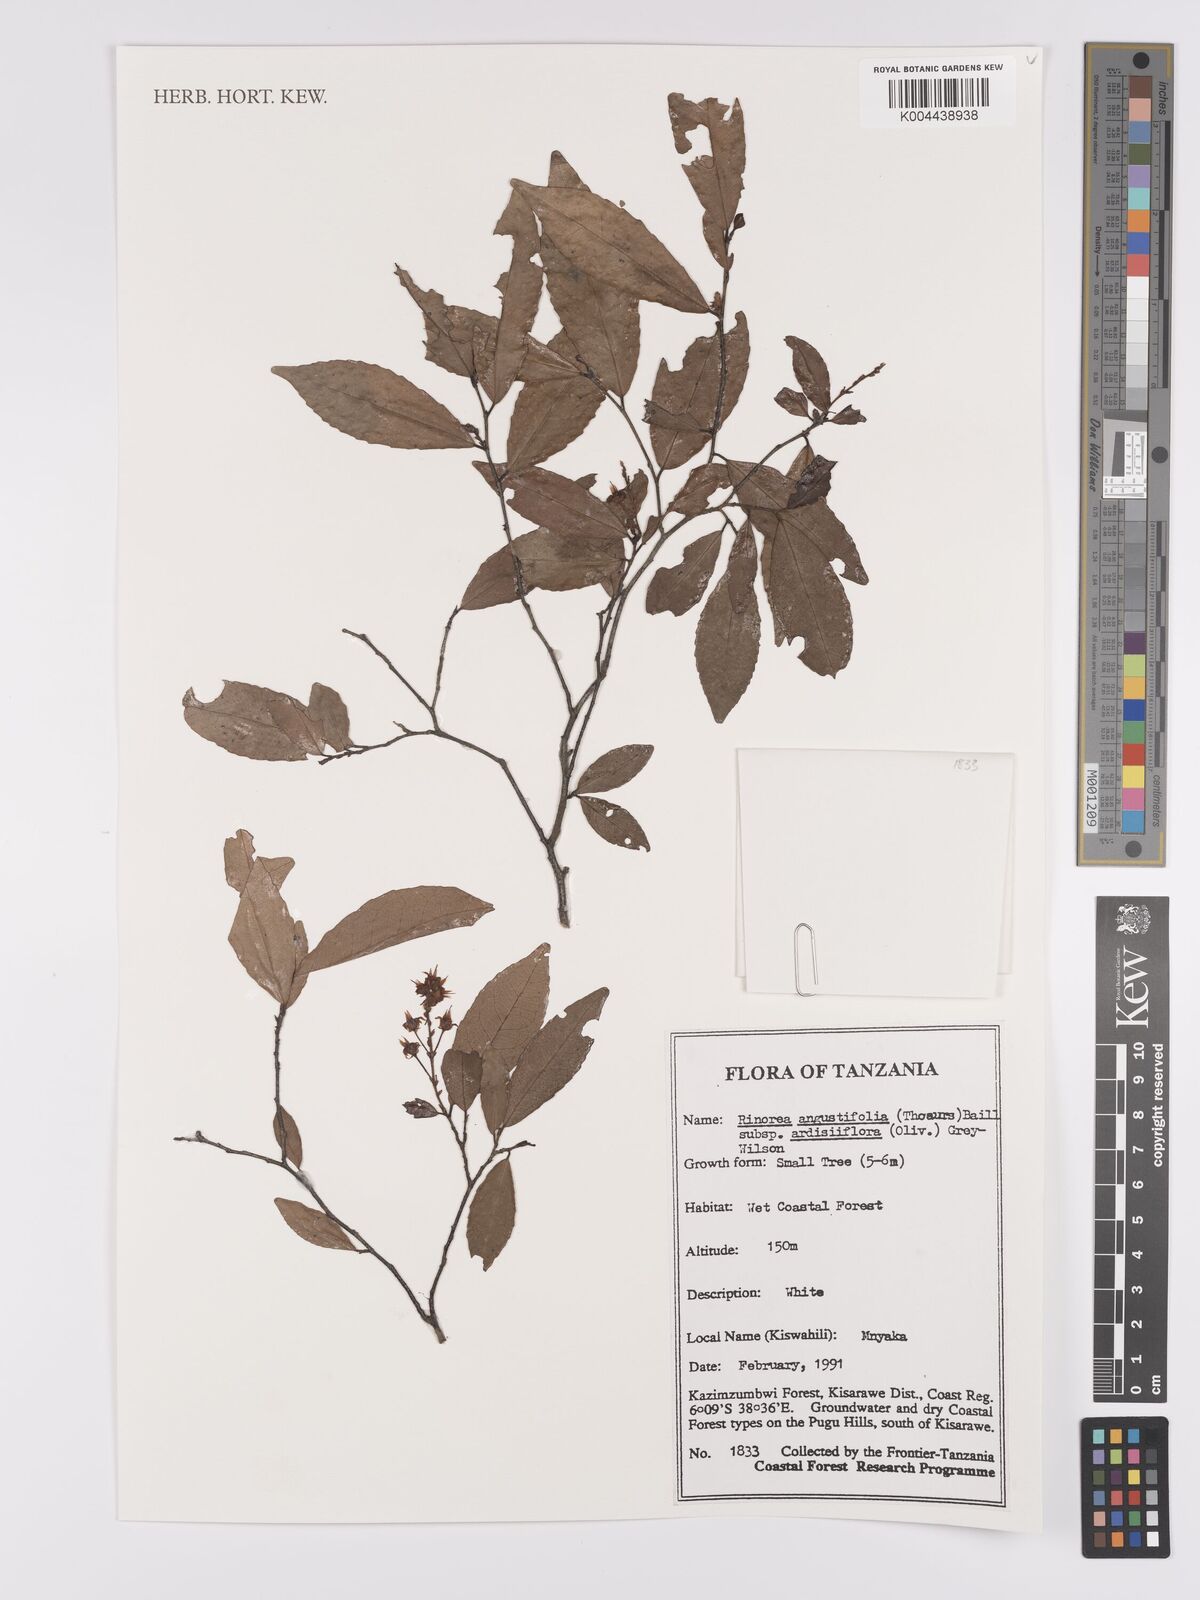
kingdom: Plantae
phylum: Tracheophyta
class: Magnoliopsida
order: Malpighiales
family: Violaceae
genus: Rinorea
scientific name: Rinorea angustifolia
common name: White violet-bush
